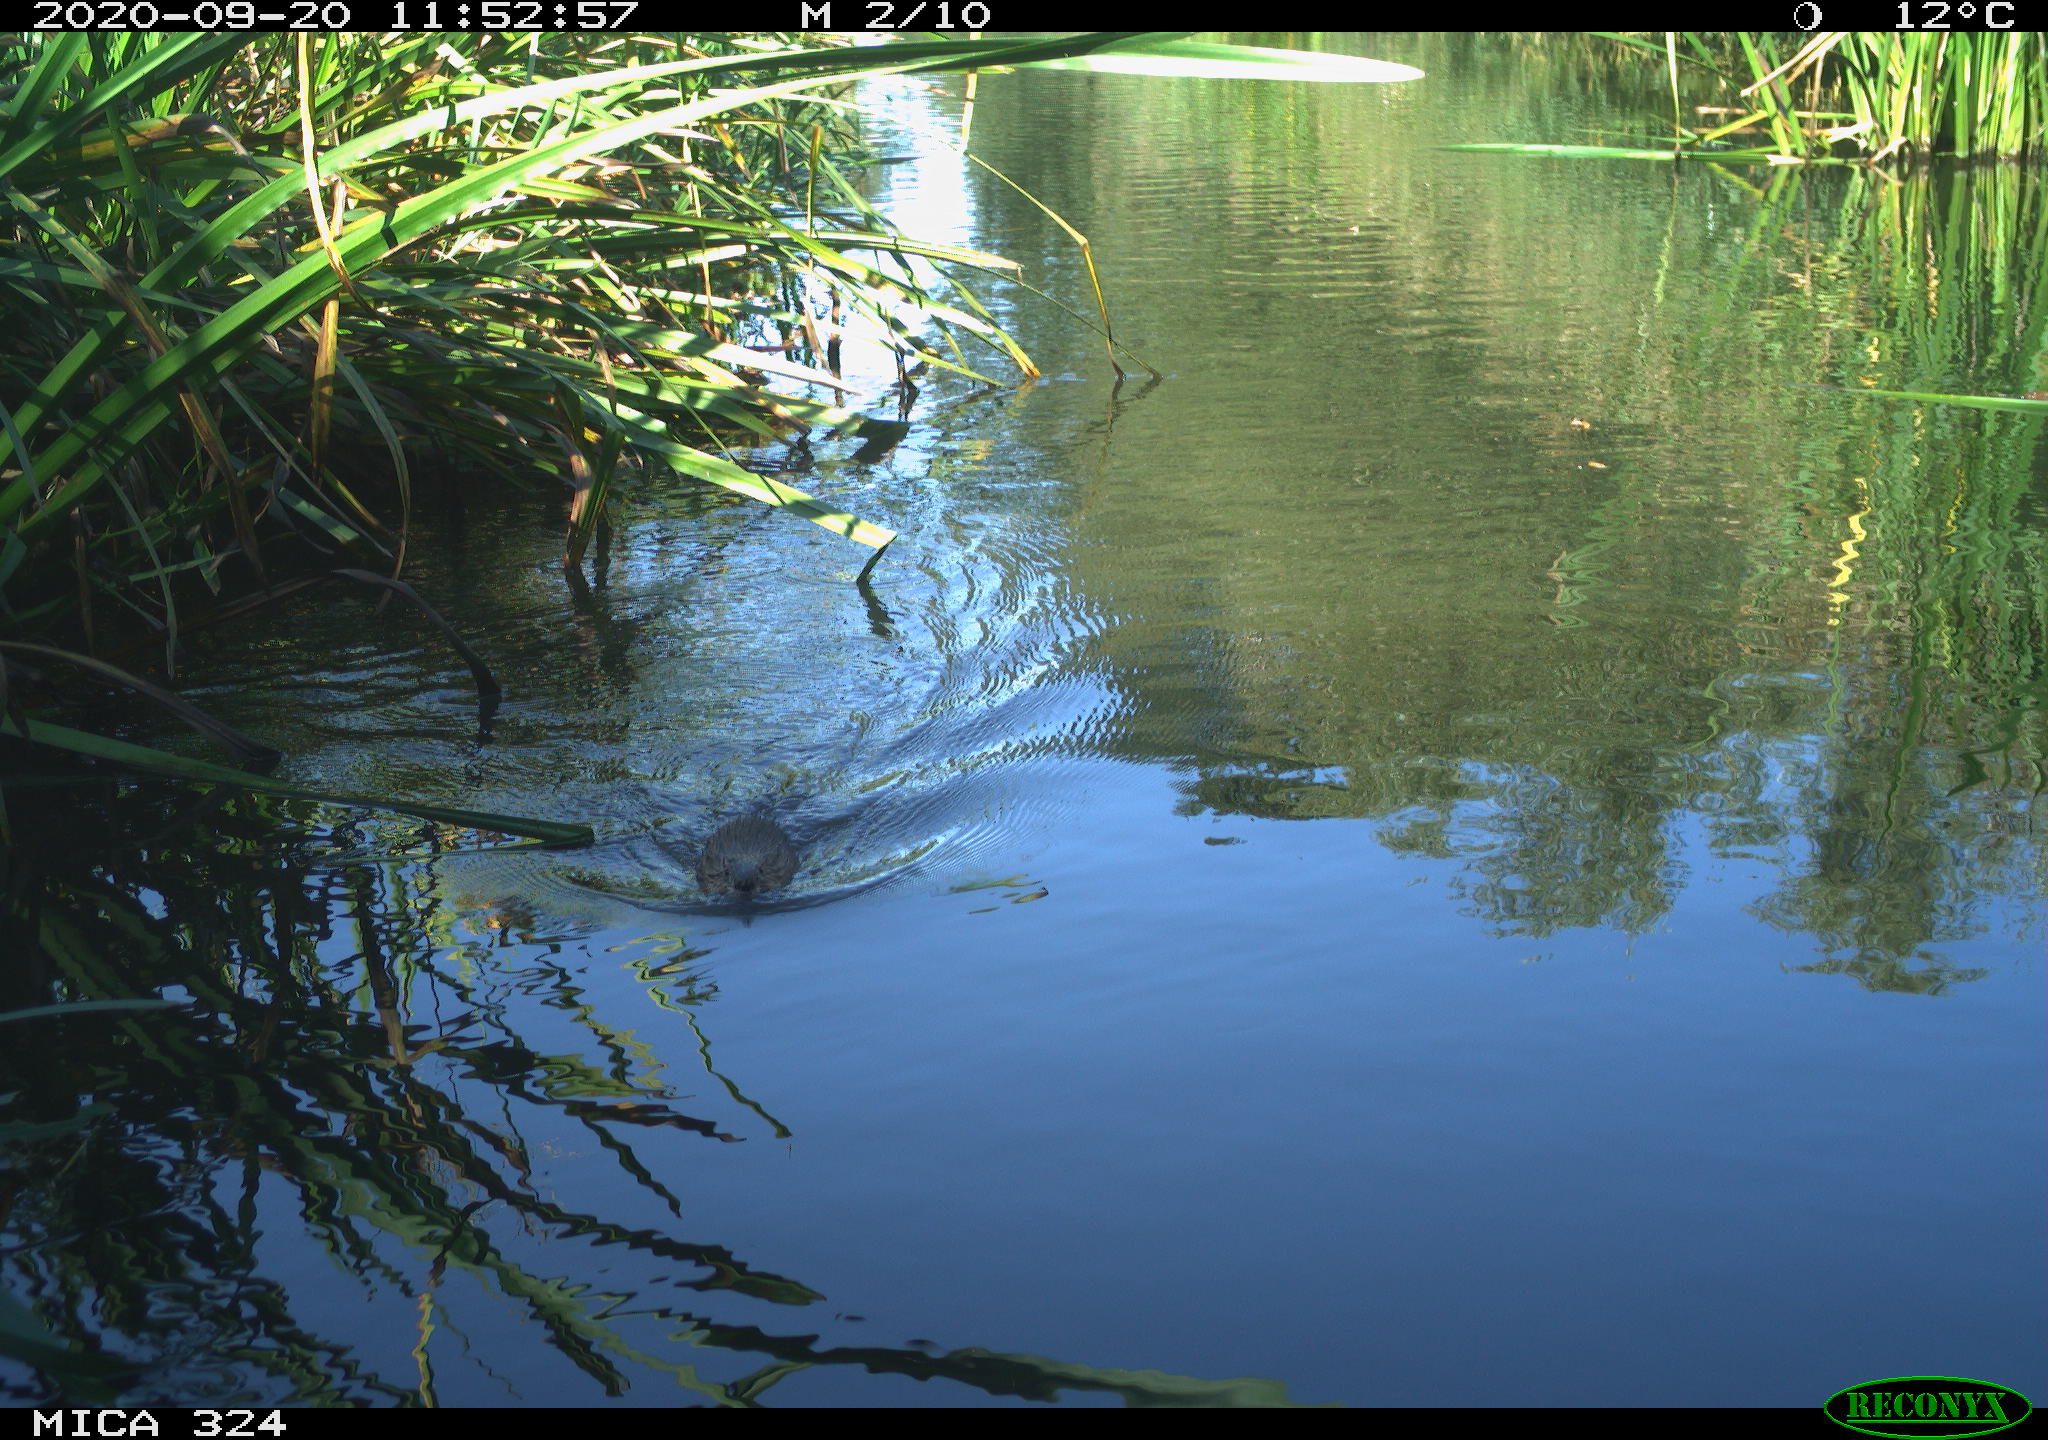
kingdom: Animalia
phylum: Chordata
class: Mammalia
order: Rodentia
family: Cricetidae
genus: Ondatra
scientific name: Ondatra zibethicus
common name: Muskrat
